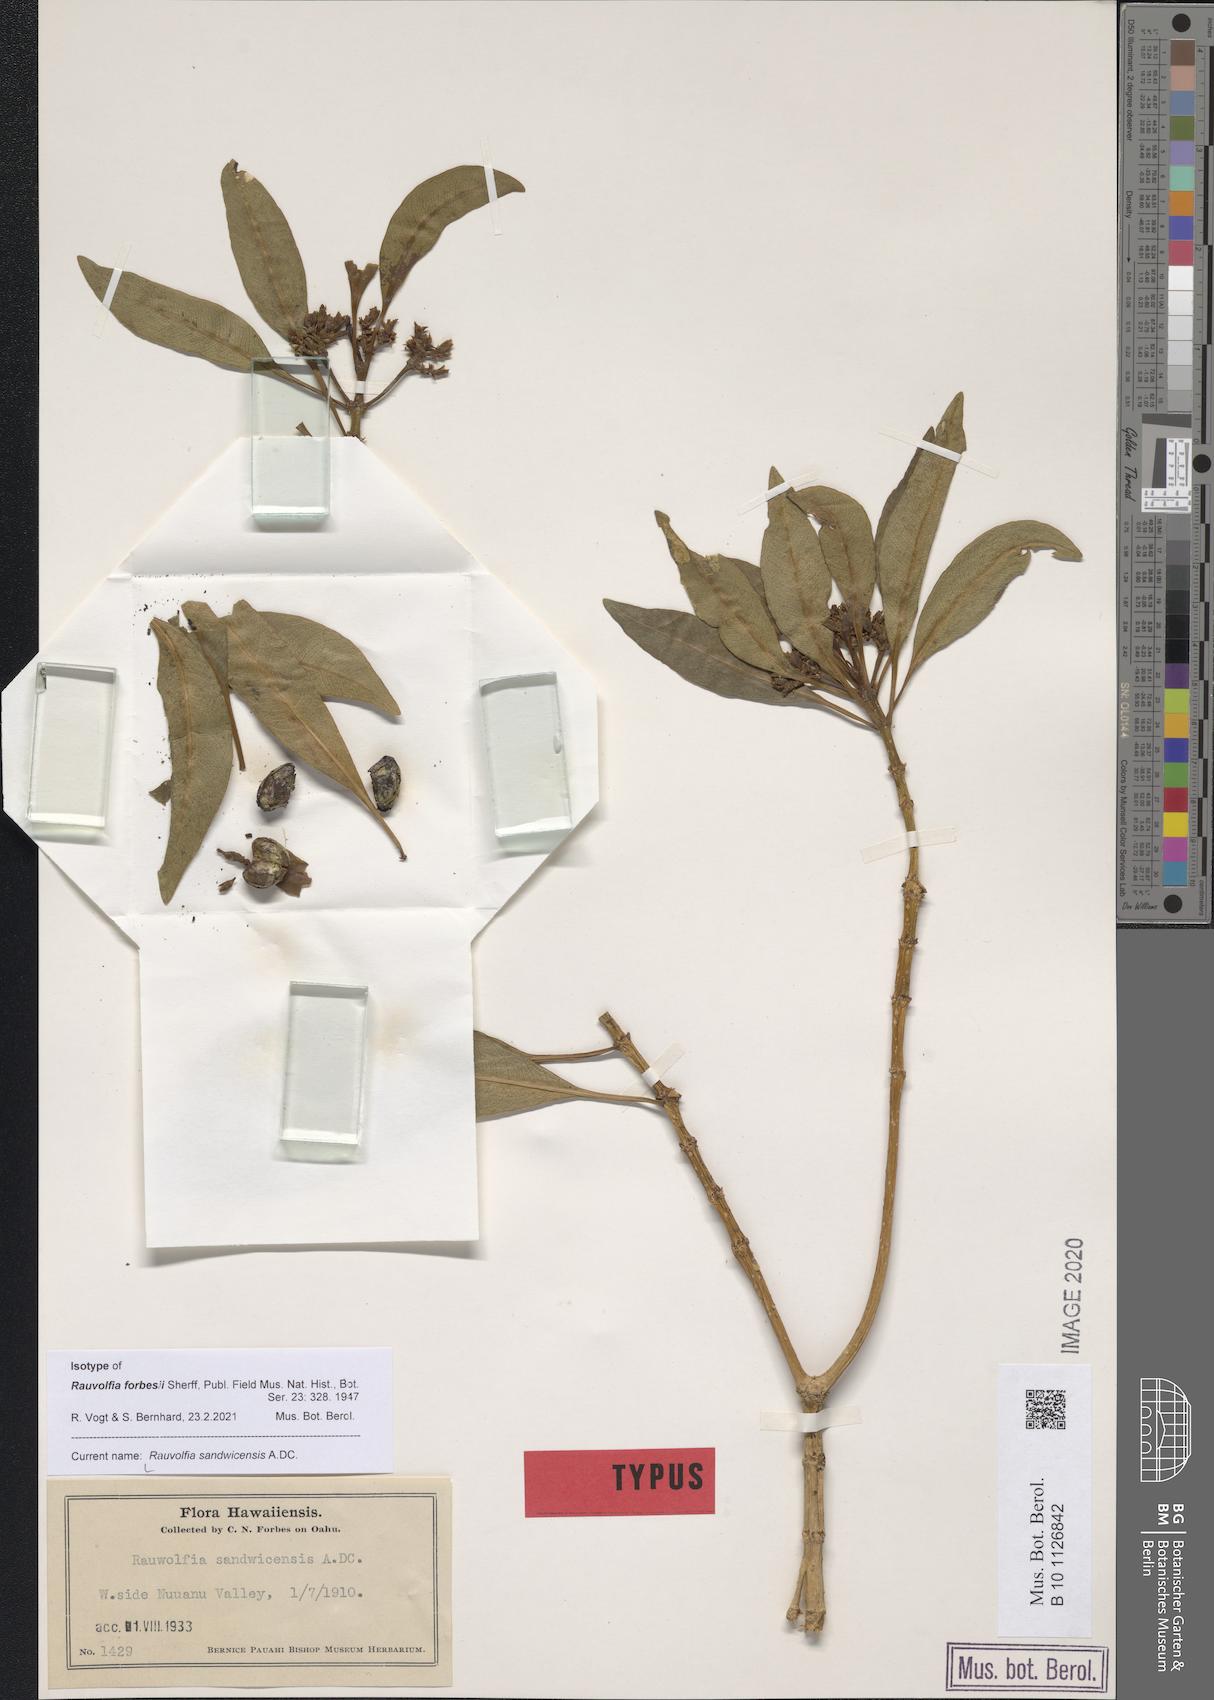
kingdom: Plantae
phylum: Tracheophyta
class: Magnoliopsida
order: Gentianales
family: Apocynaceae
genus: Rauvolfia
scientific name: Rauvolfia sandwicensis
